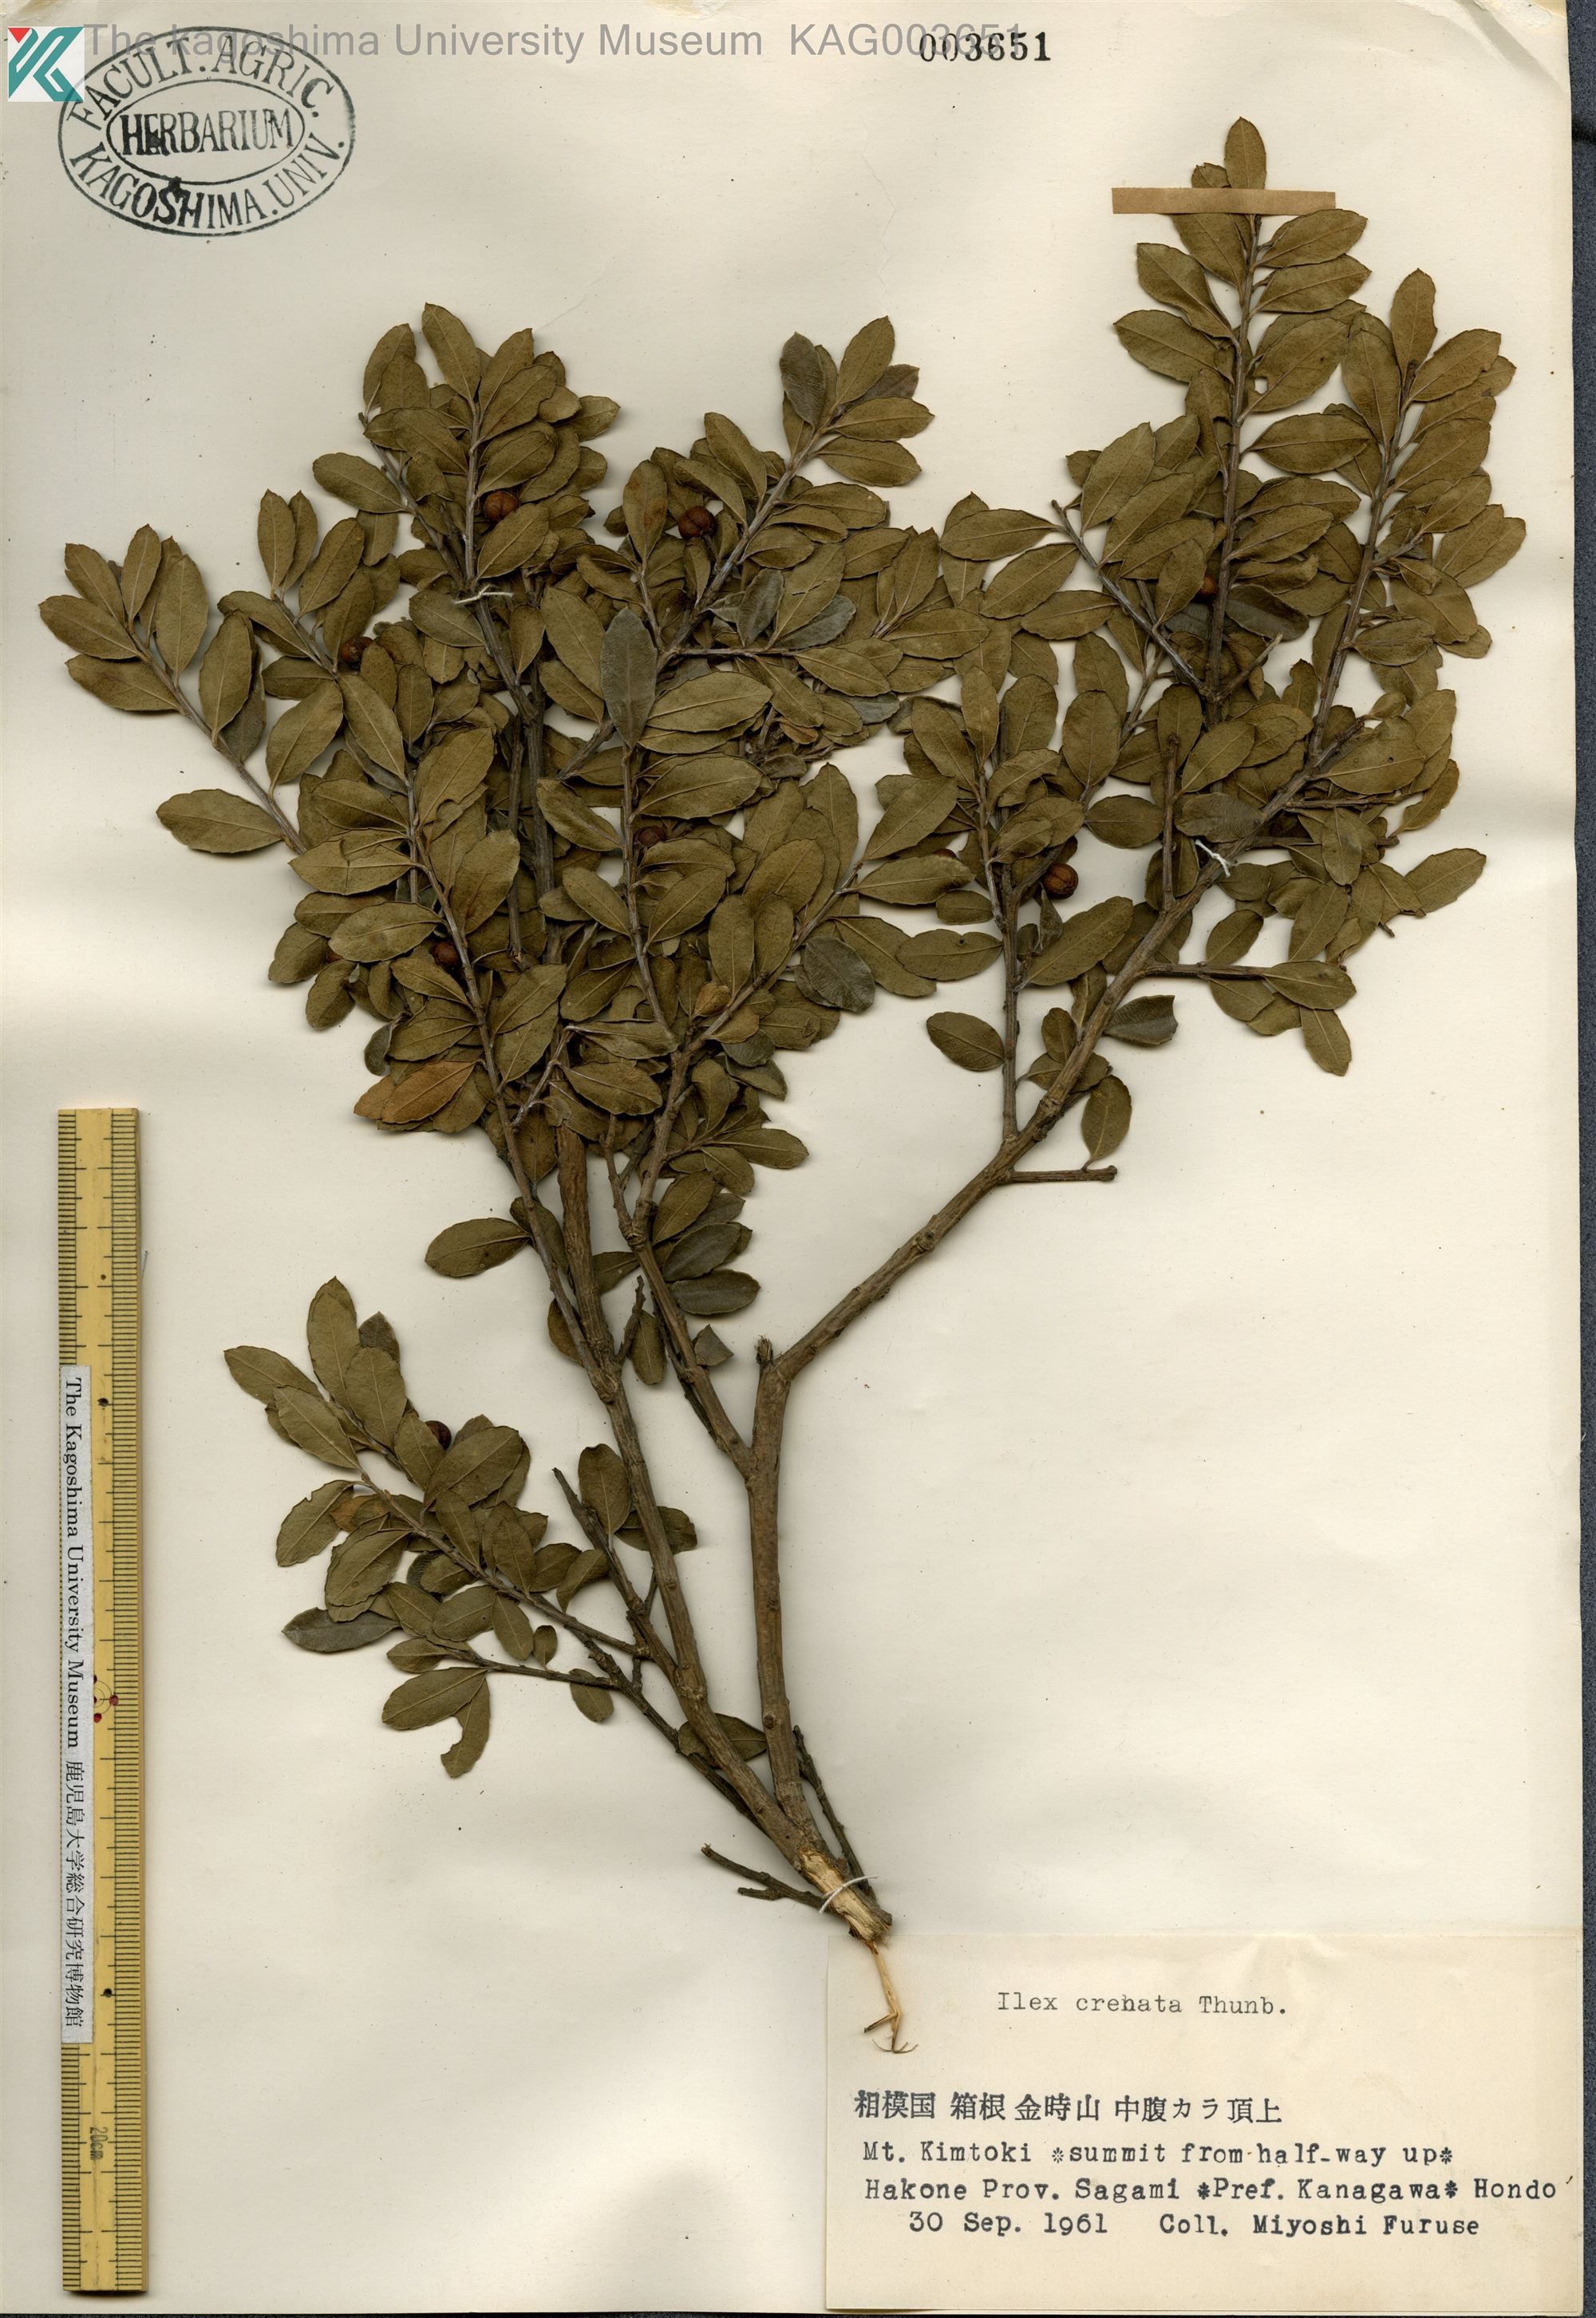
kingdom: Plantae
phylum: Tracheophyta
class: Magnoliopsida
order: Aquifoliales
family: Aquifoliaceae
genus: Ilex
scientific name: Ilex crenata
